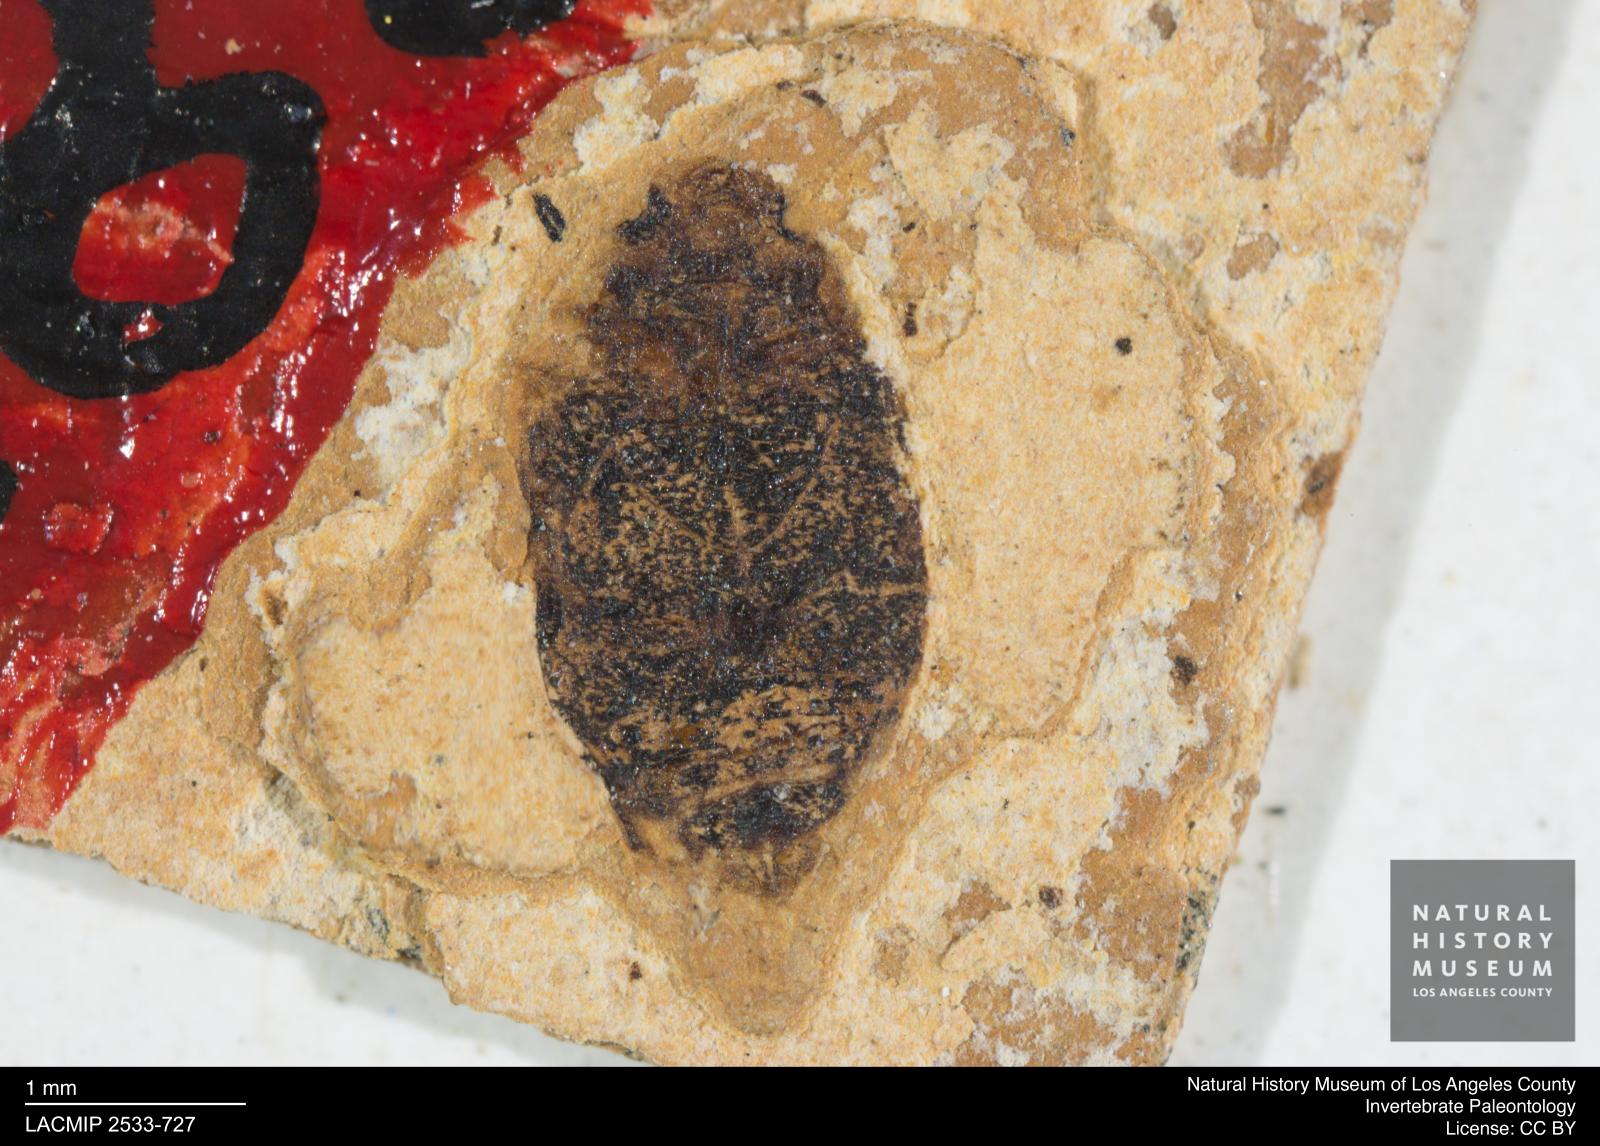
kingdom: Animalia
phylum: Arthropoda
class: Insecta
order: Coleoptera
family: Dytiscidae
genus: Oreodytes
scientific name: Oreodytes cryptolineatus
